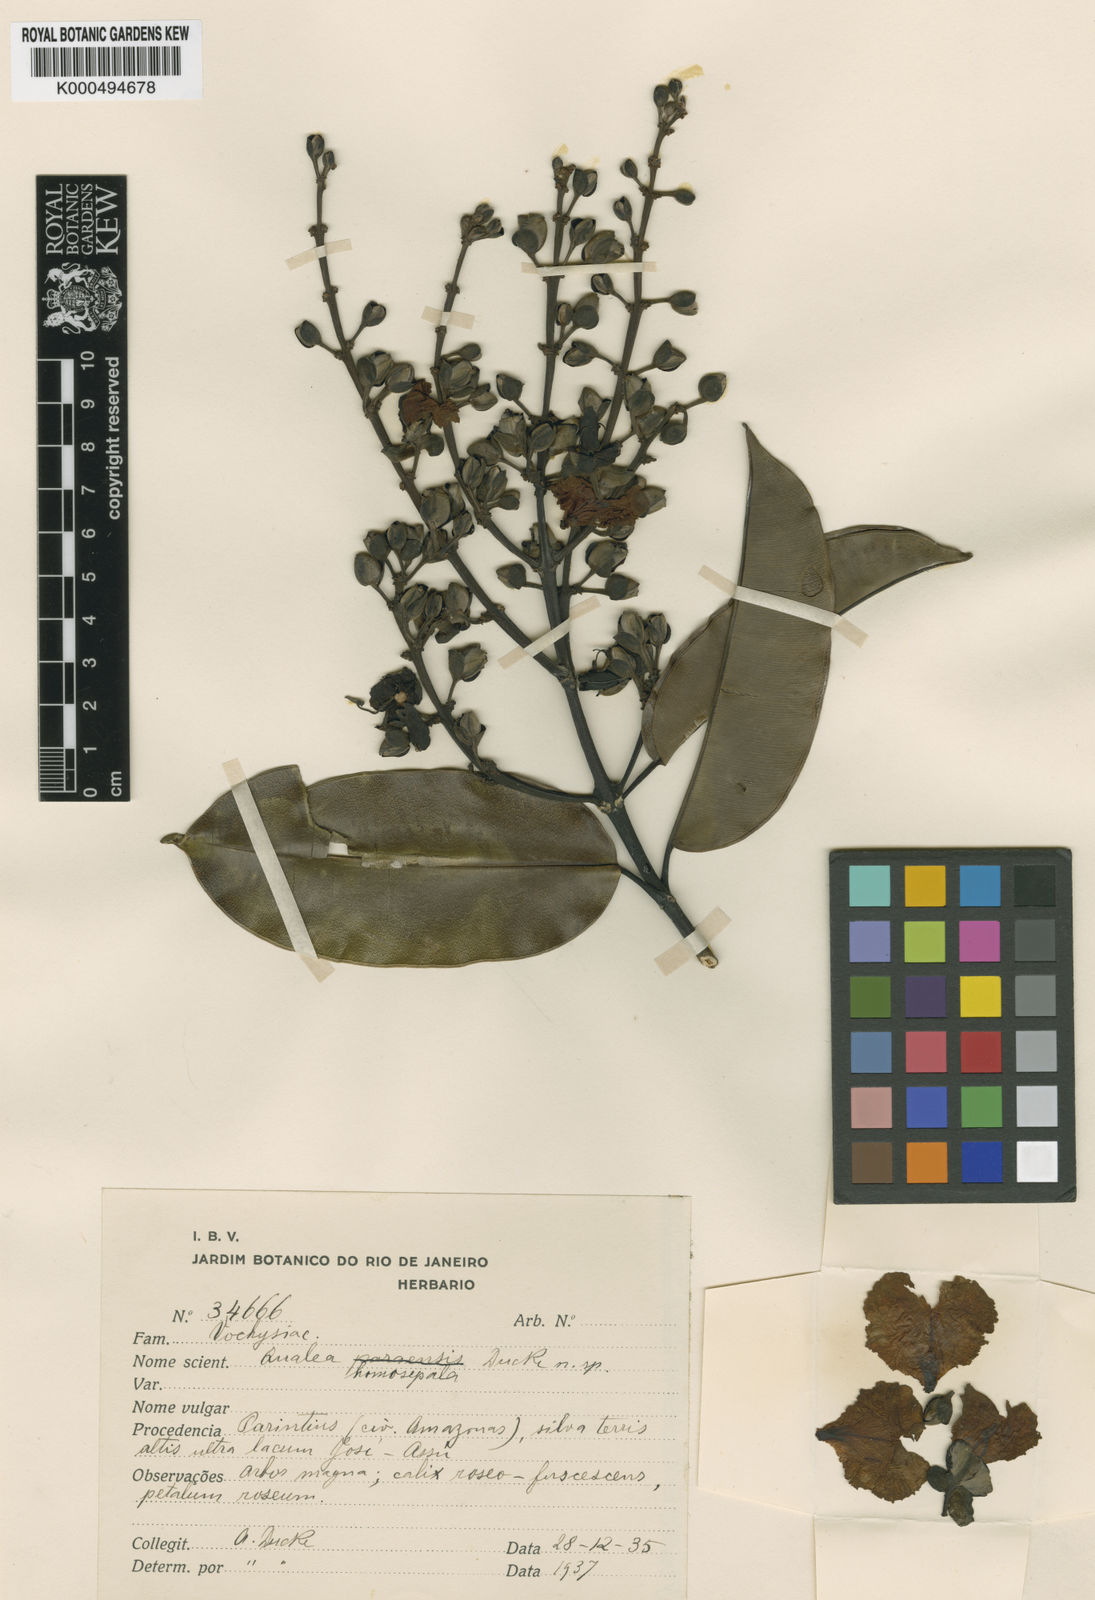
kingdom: Plantae
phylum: Tracheophyta
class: Magnoliopsida
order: Myrtales
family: Vochysiaceae
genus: Qualea
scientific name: Qualea homosepala
